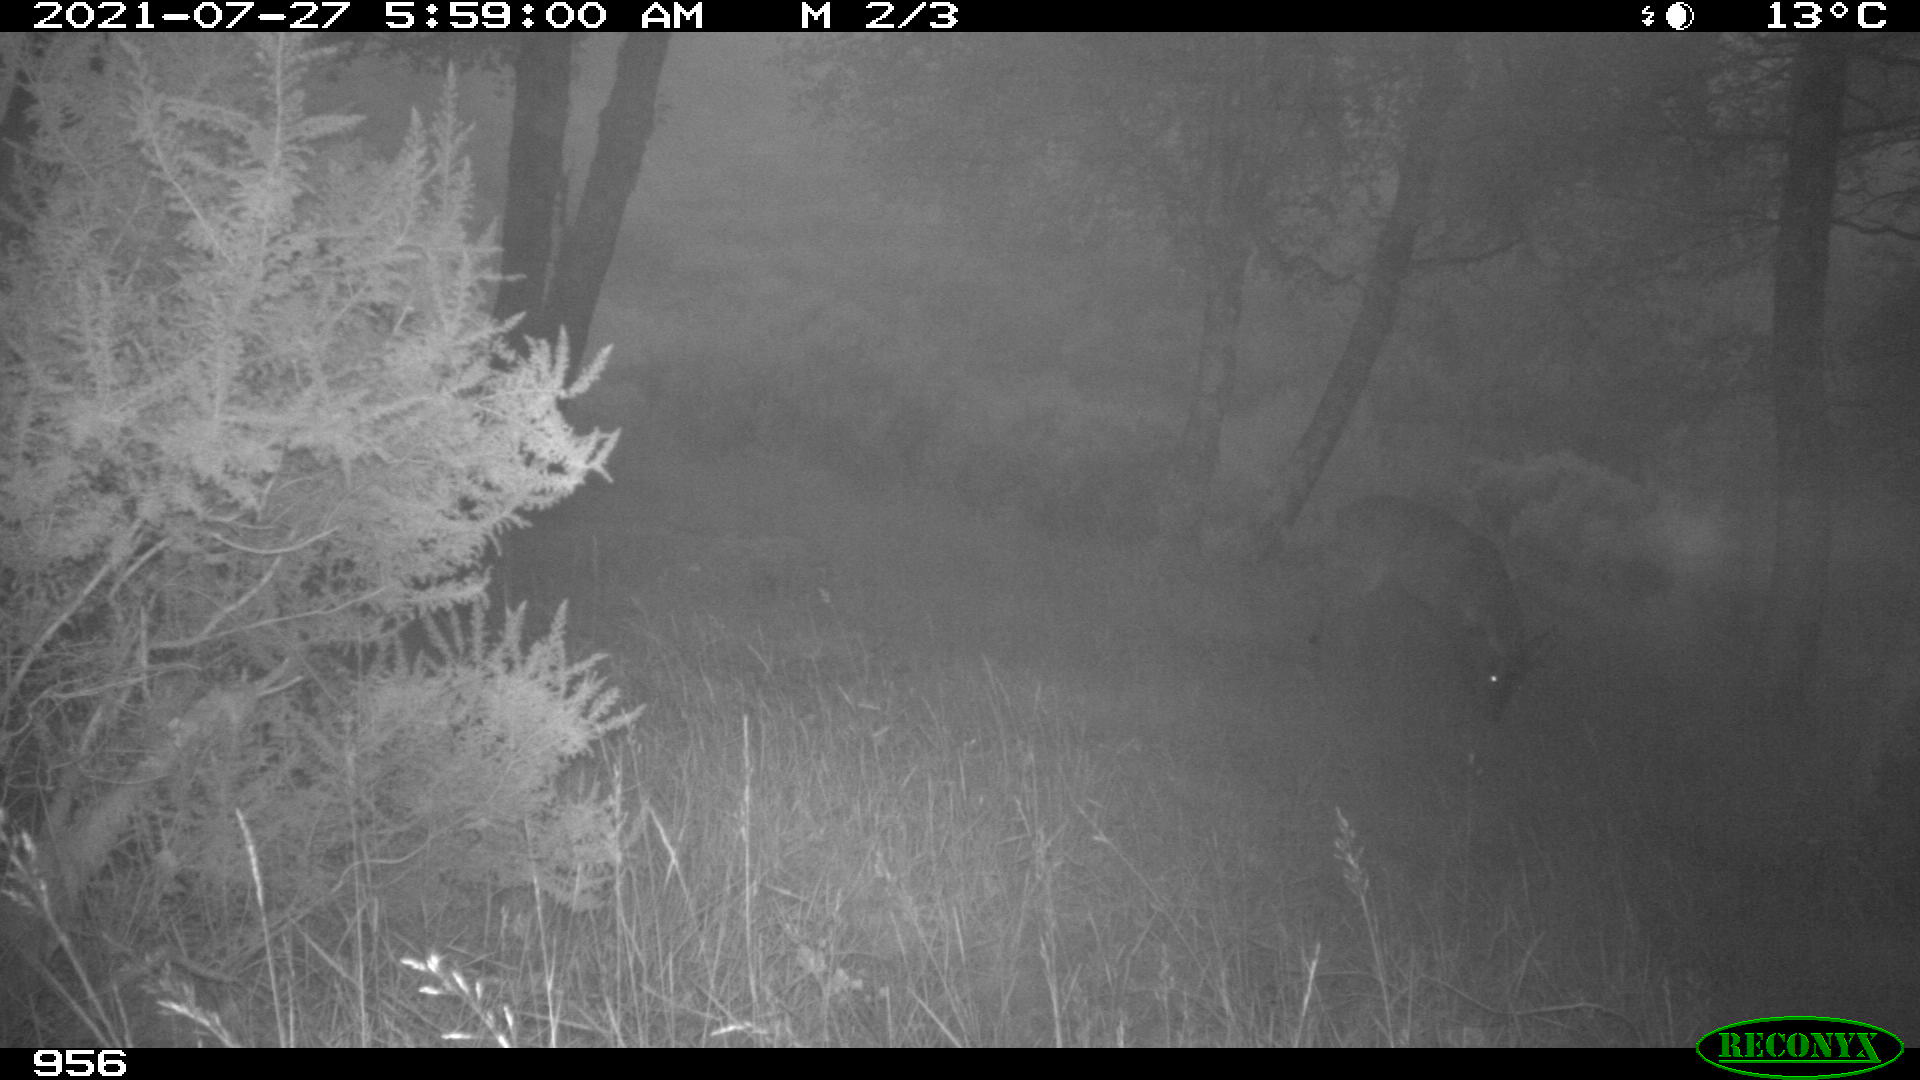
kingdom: Animalia
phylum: Chordata
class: Mammalia
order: Artiodactyla
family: Cervidae
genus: Capreolus
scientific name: Capreolus capreolus
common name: Western roe deer
